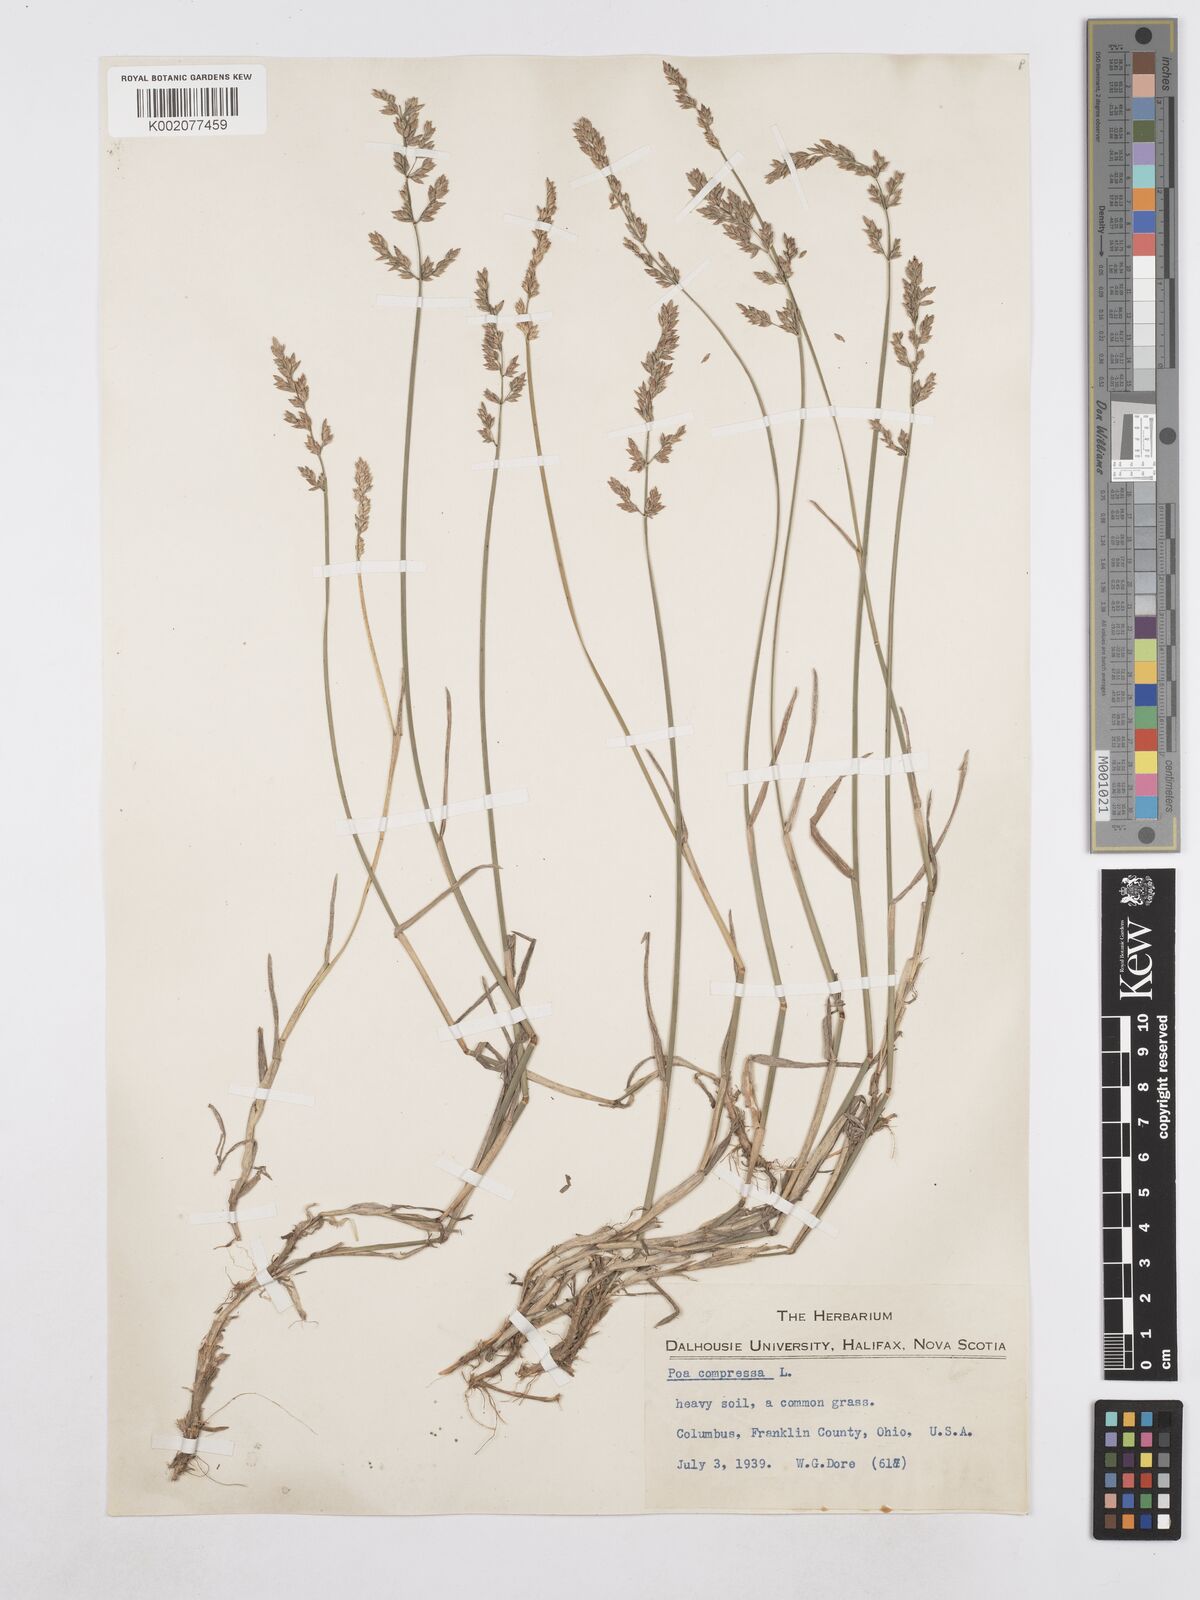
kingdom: Plantae
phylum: Tracheophyta
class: Liliopsida
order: Poales
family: Poaceae
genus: Poa
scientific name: Poa compressa
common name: Canada bluegrass
